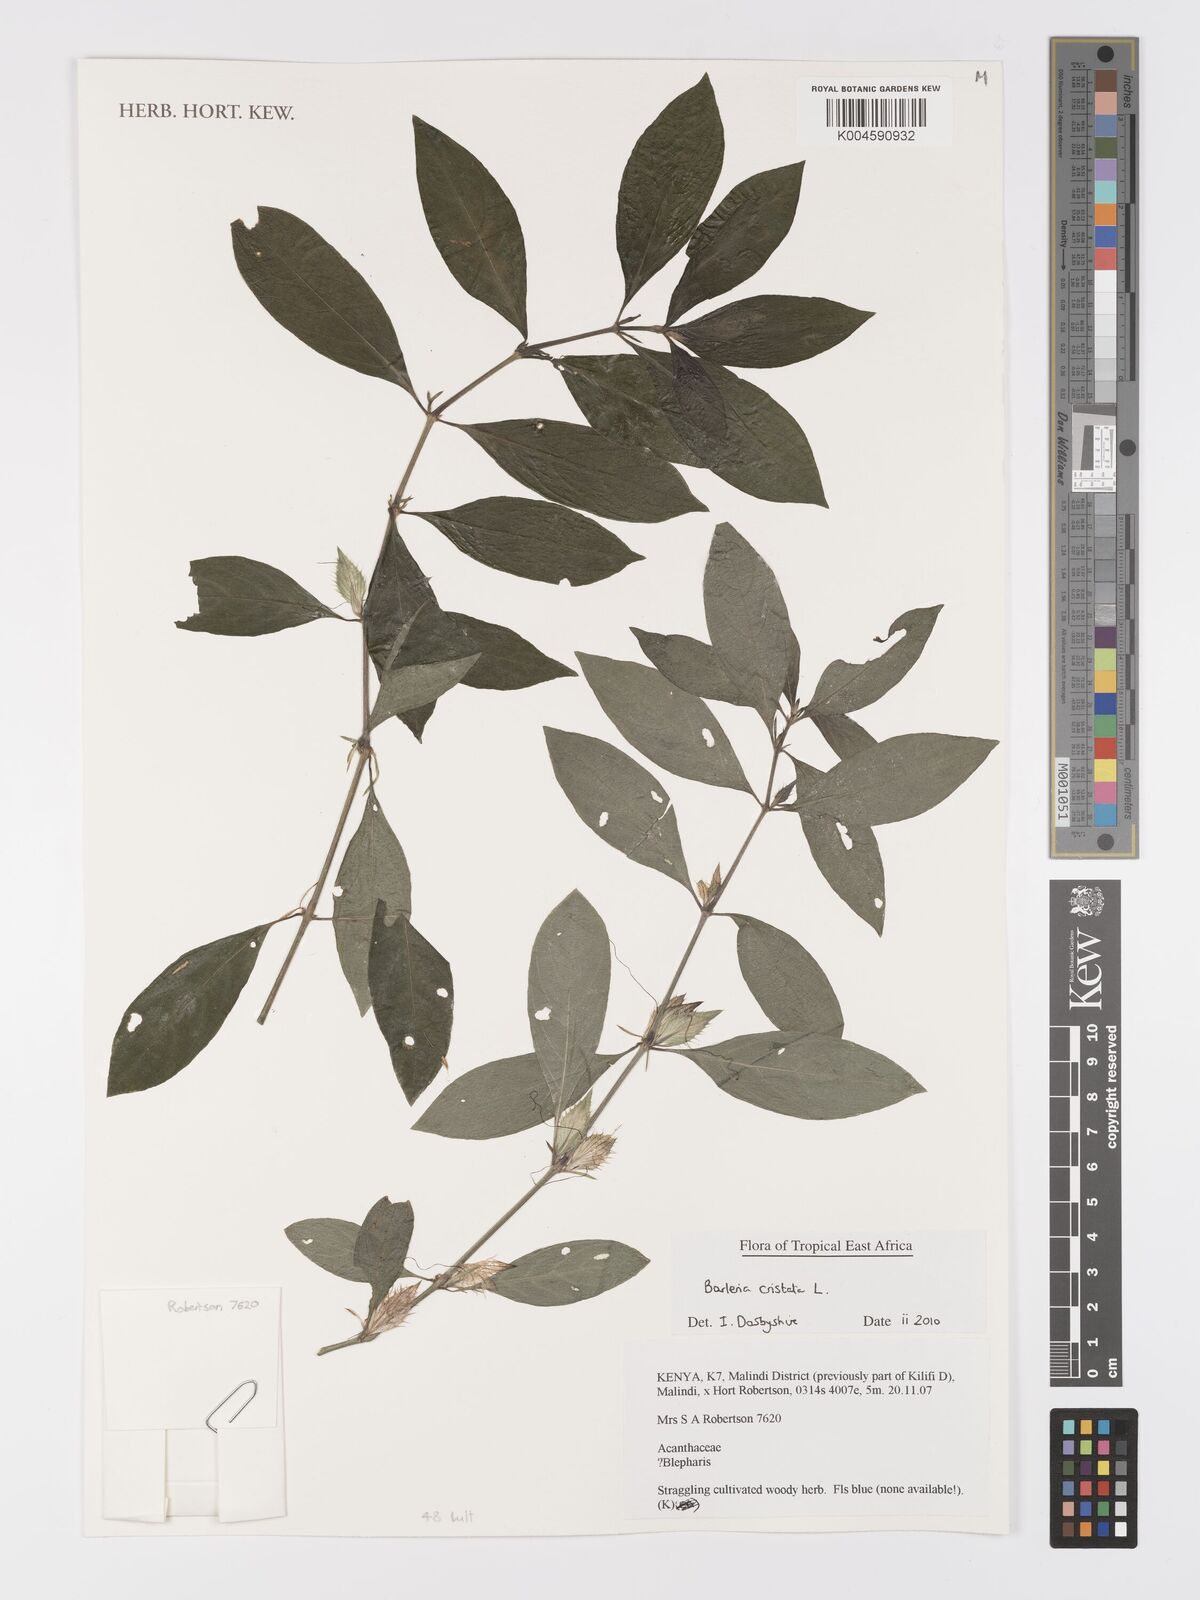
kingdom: Plantae
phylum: Tracheophyta
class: Magnoliopsida
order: Lamiales
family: Acanthaceae
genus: Barleria
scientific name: Barleria cristata
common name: Crested philippine violet
